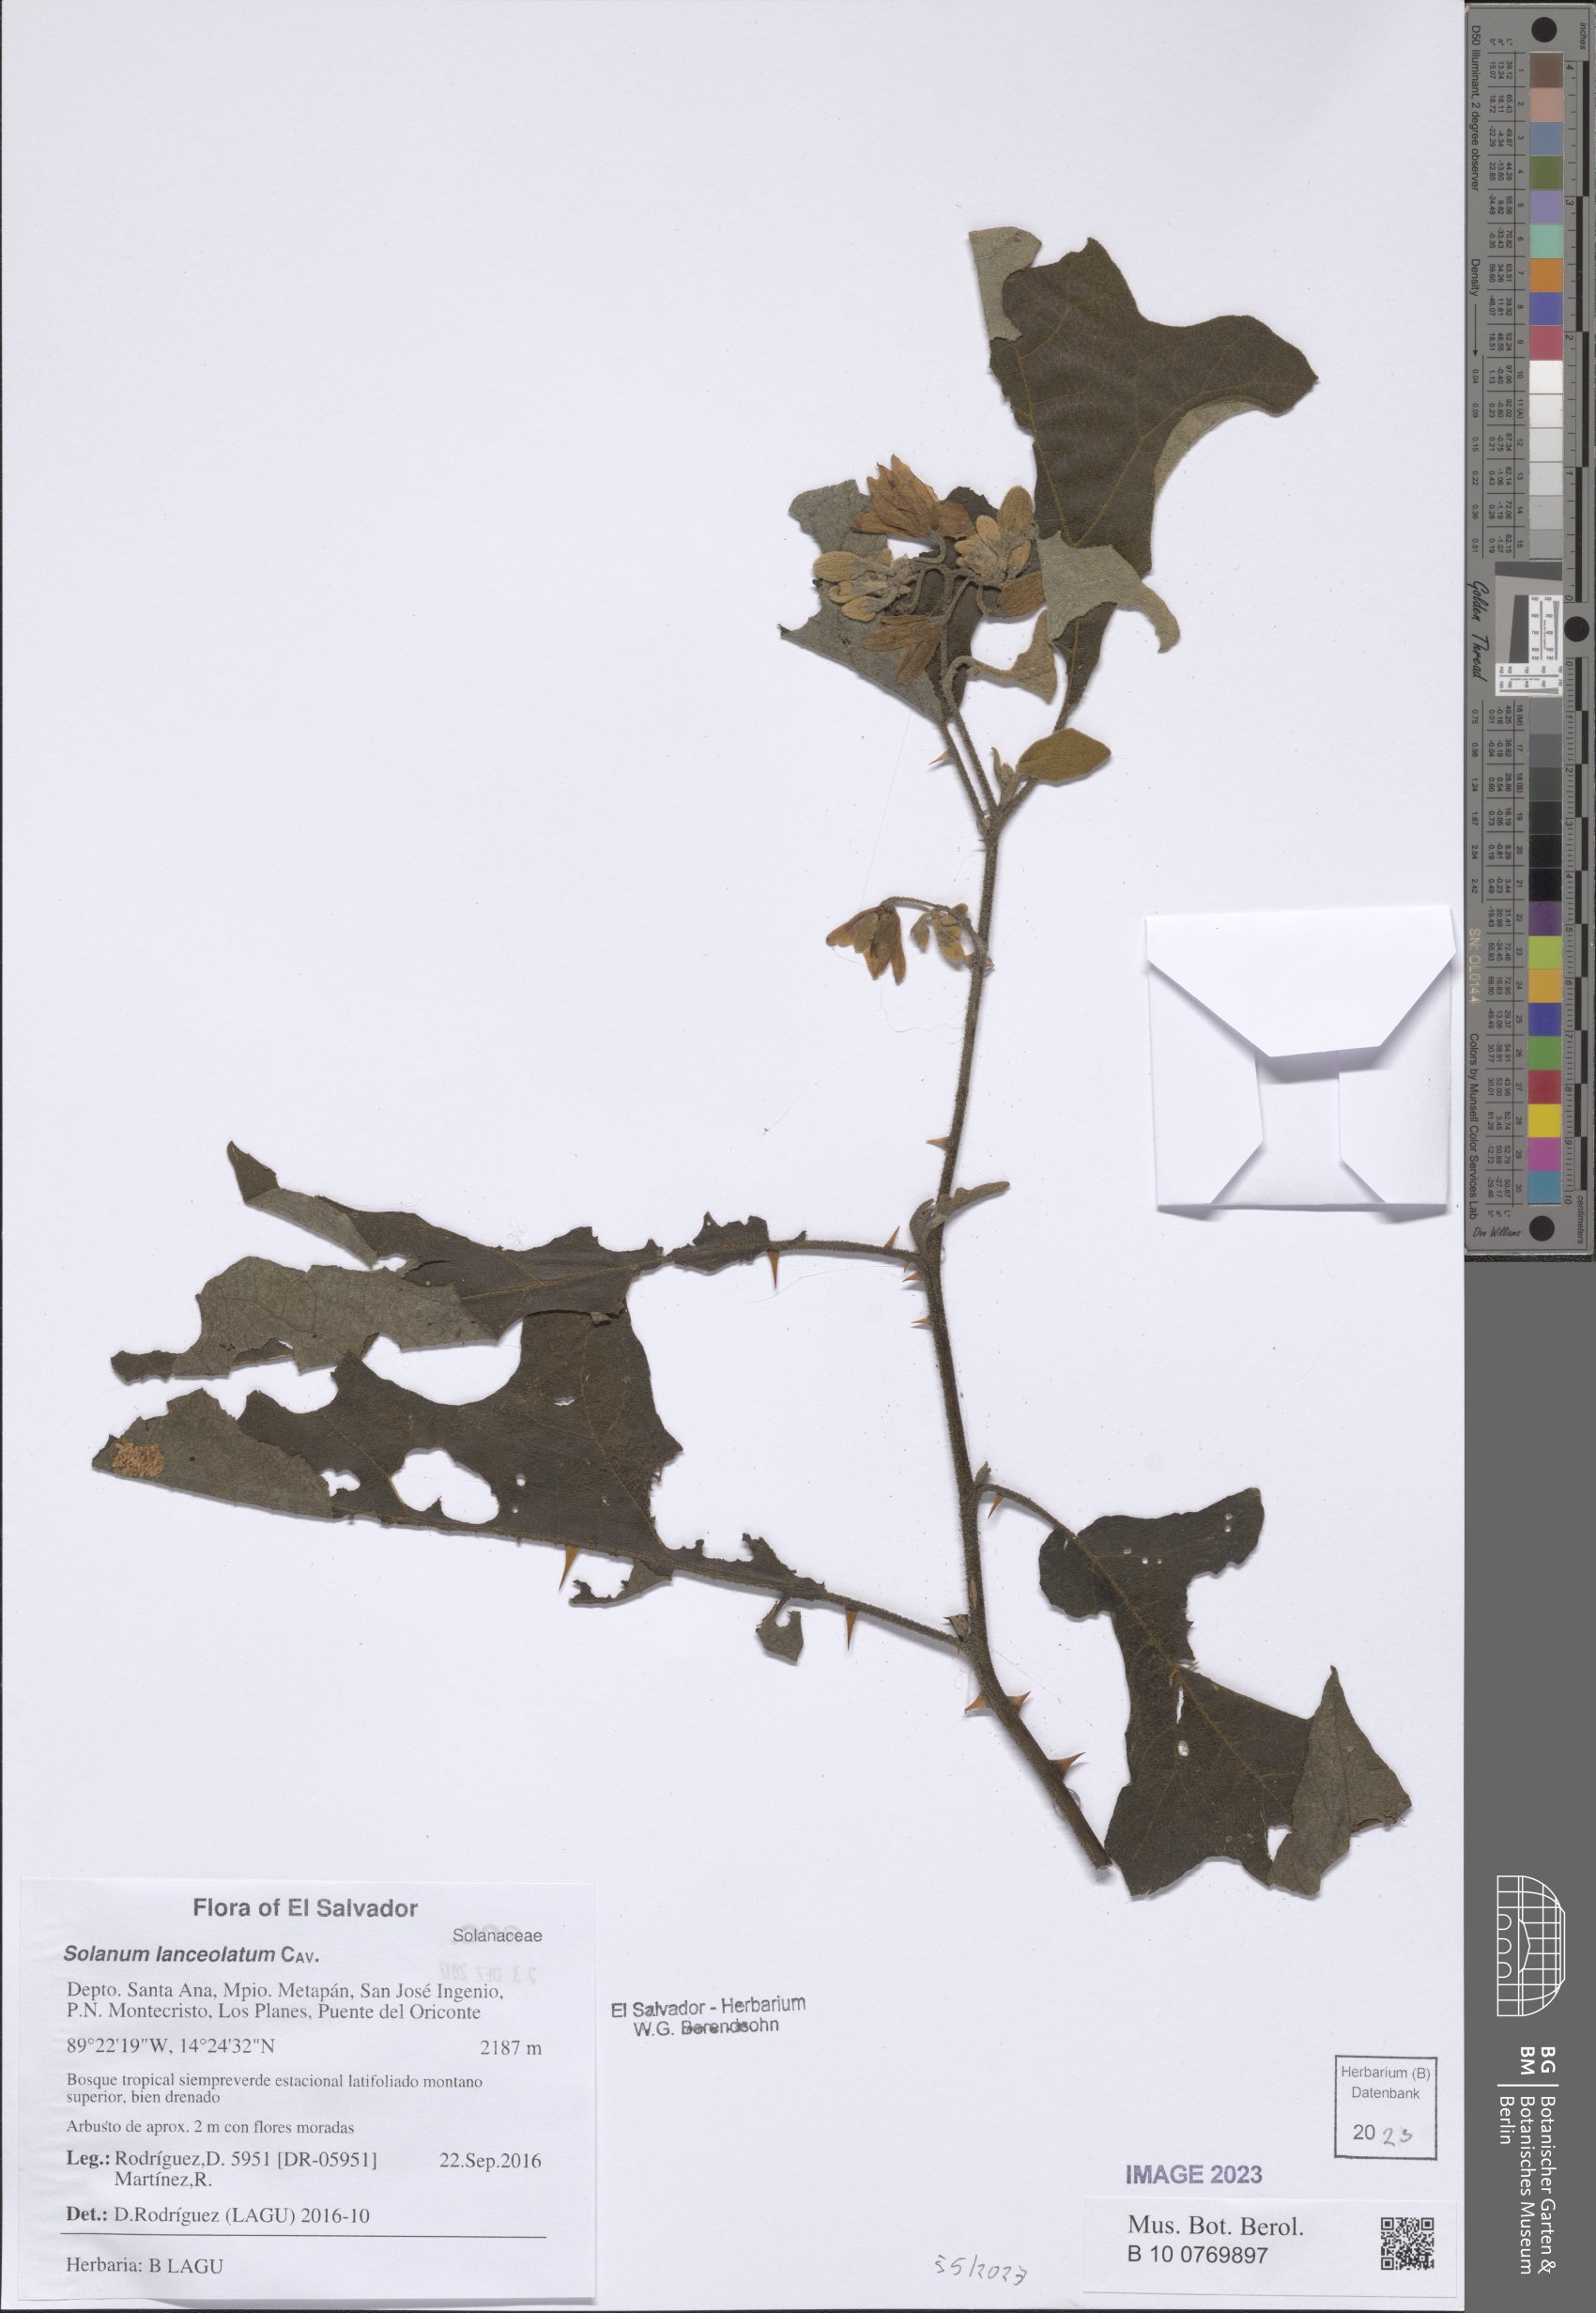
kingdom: Plantae
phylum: Tracheophyta
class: Magnoliopsida
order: Solanales
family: Solanaceae
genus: Solanum
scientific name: Solanum lanceolatum
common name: Orangeberry nightshade
